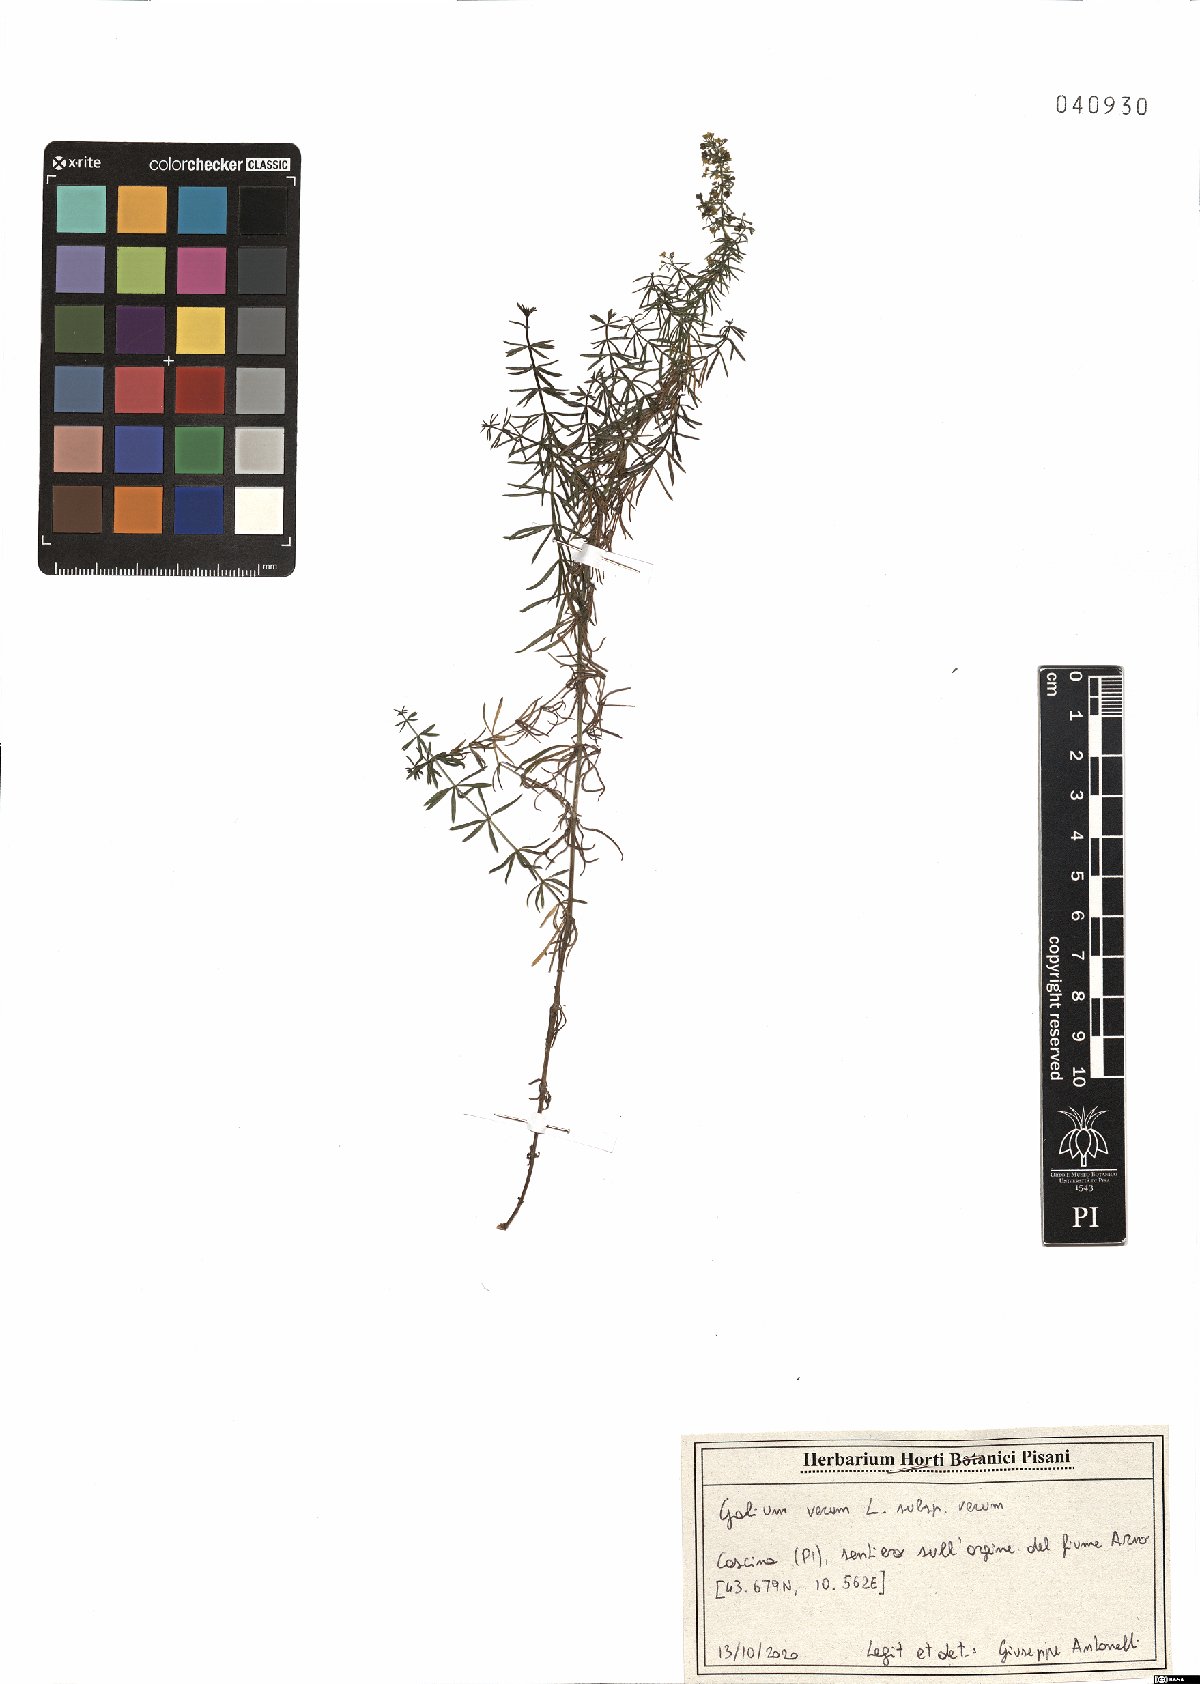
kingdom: Plantae
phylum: Tracheophyta
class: Magnoliopsida
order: Gentianales
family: Rubiaceae
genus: Galium
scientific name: Galium verum
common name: Lady's bedstraw
